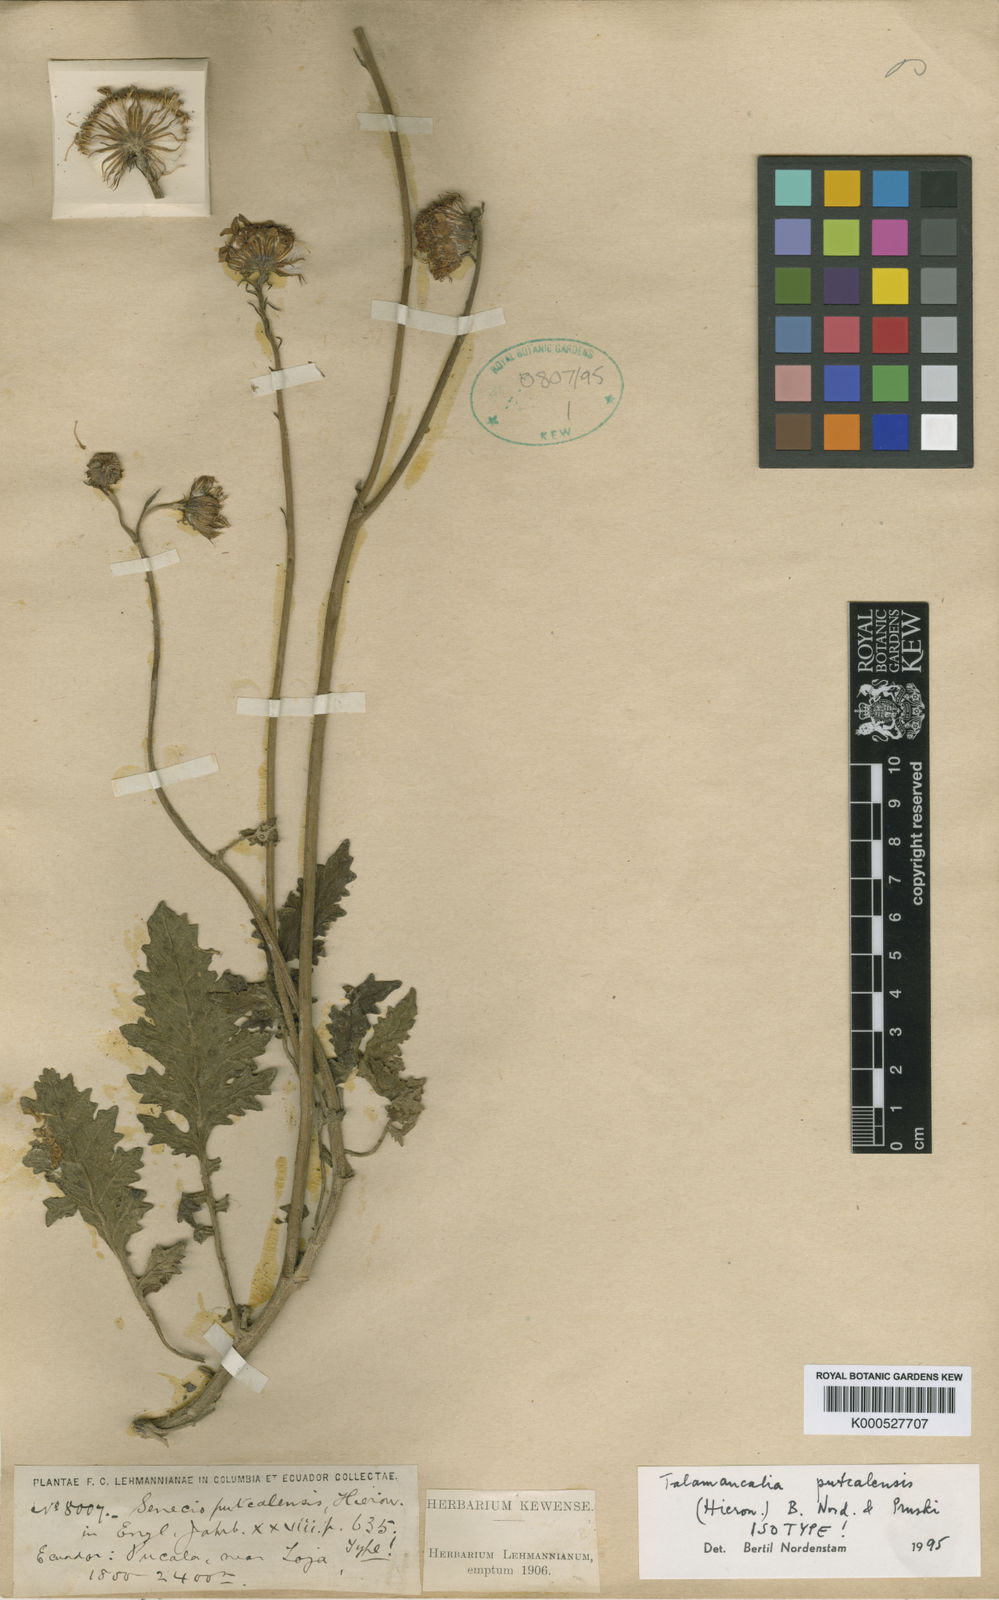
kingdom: Plantae
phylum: Tracheophyta
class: Magnoliopsida
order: Asterales
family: Asteraceae
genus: Lomanthus
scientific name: Lomanthus putcalensis
